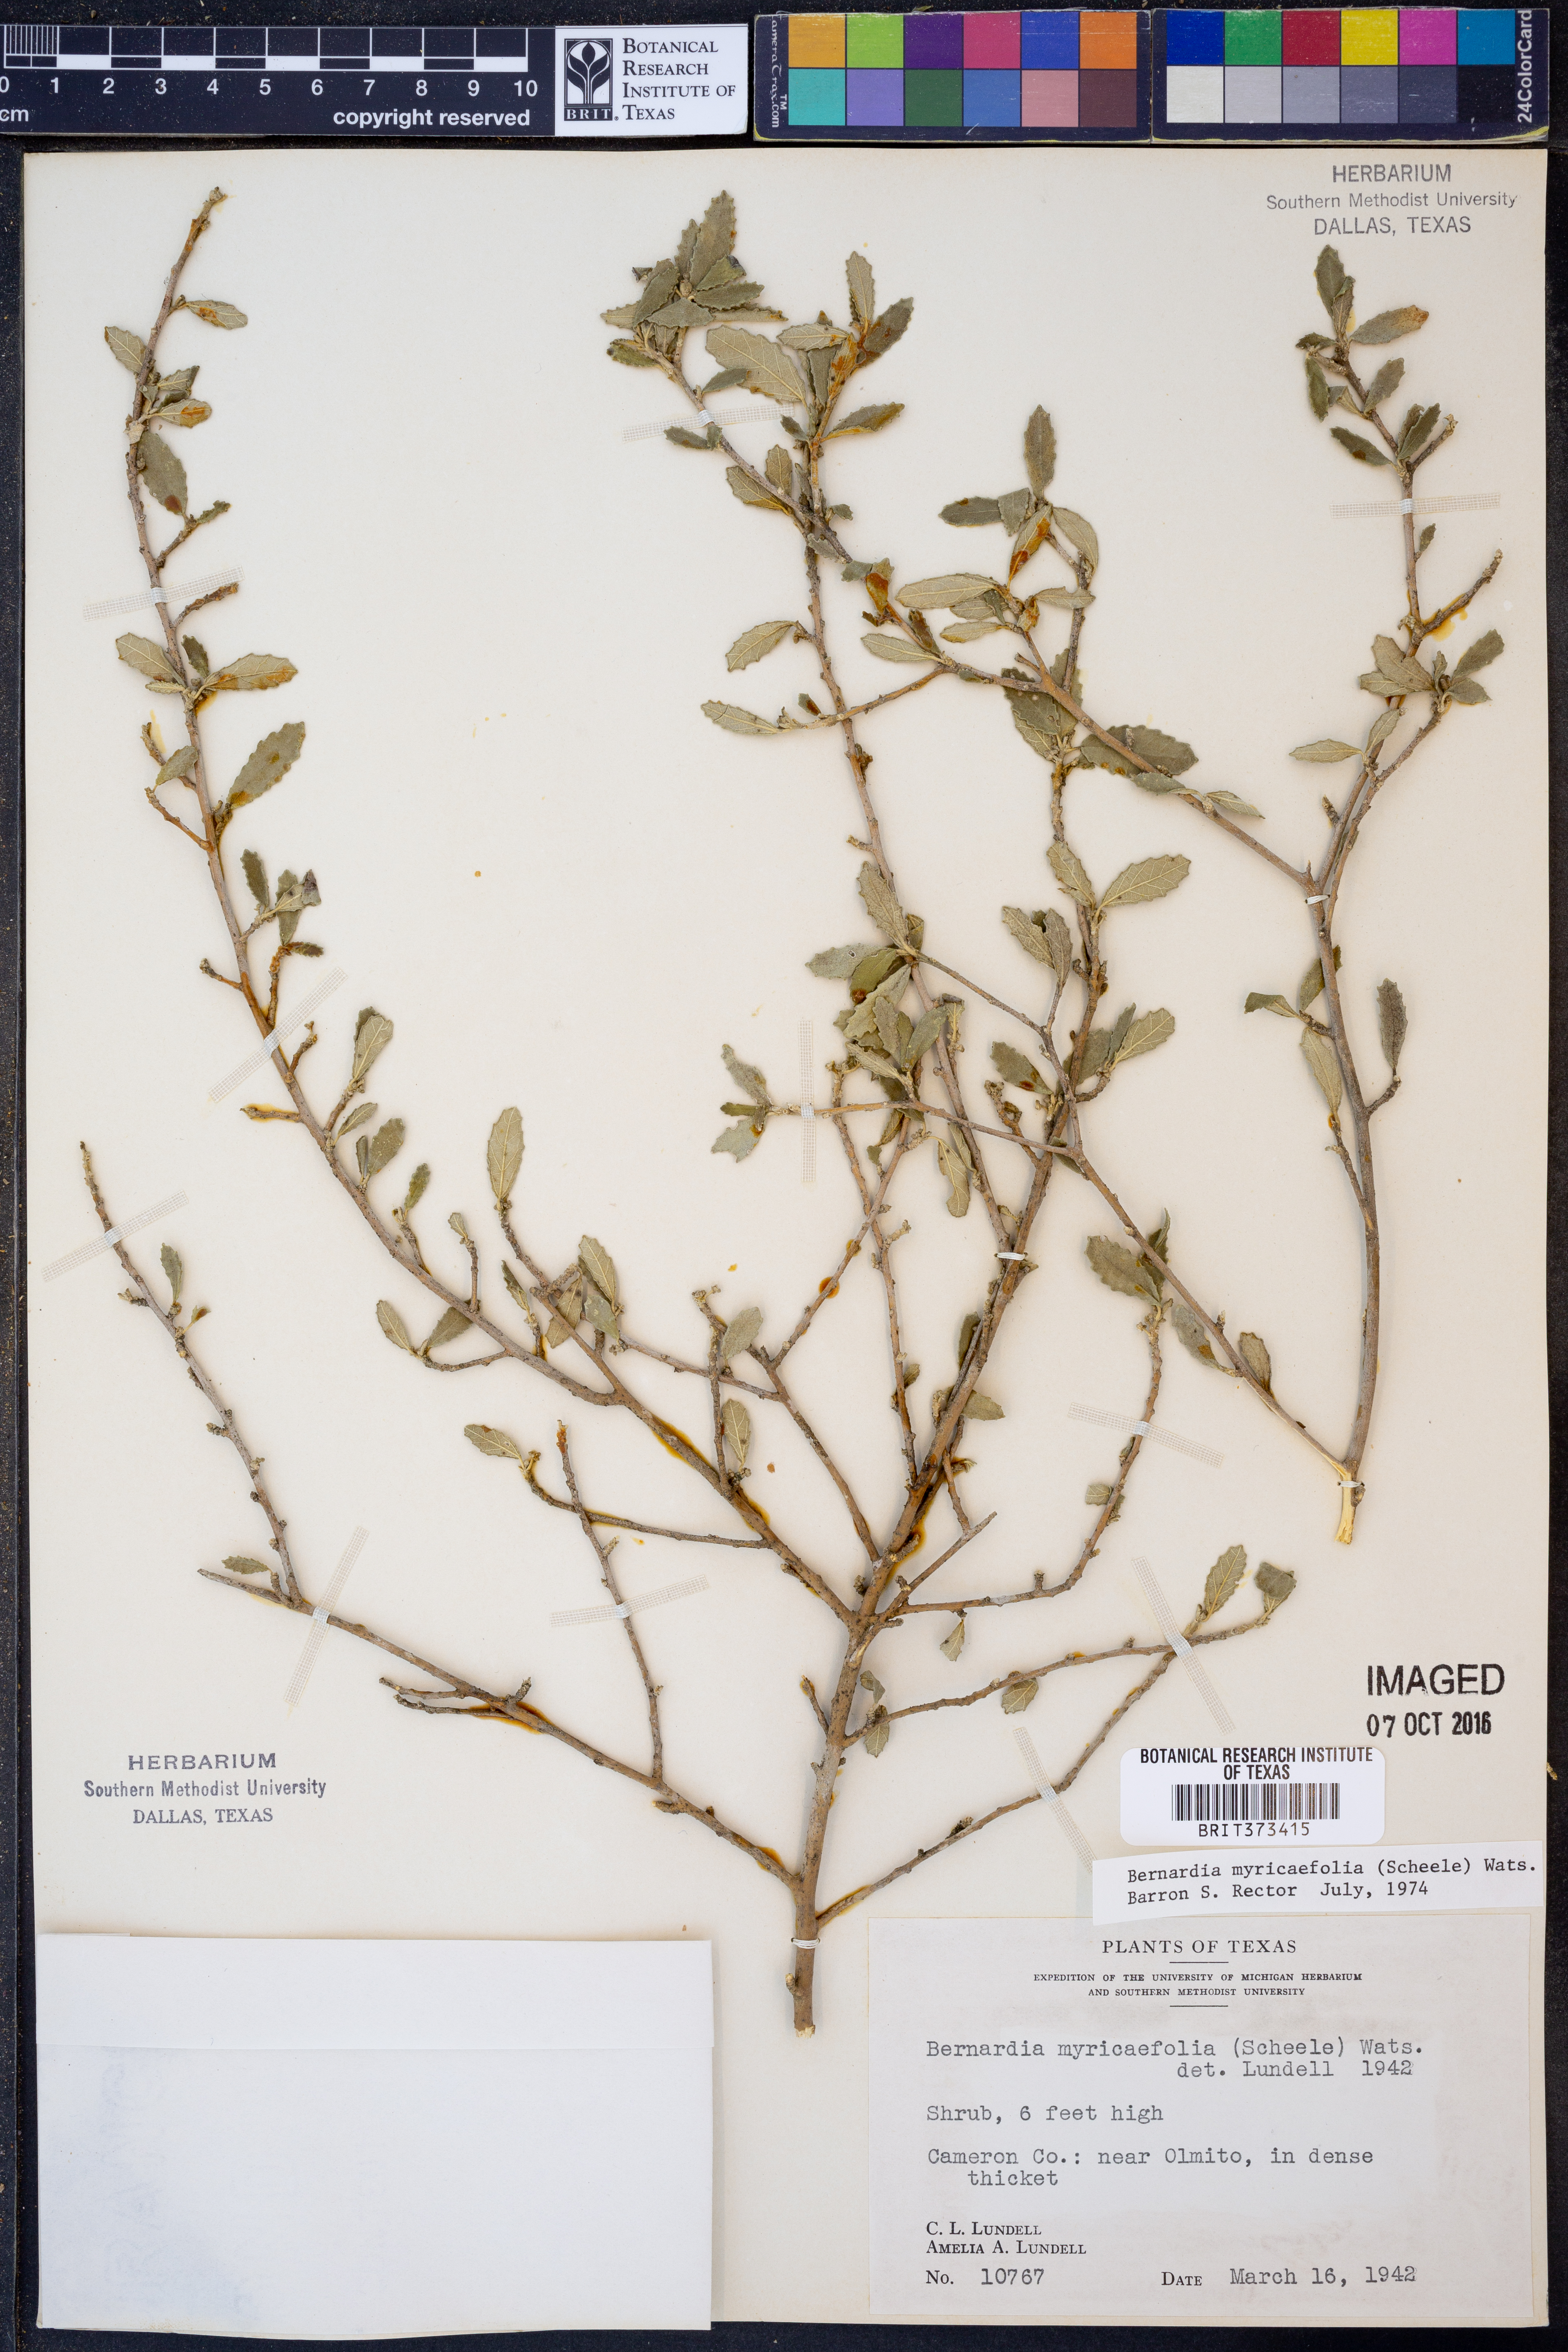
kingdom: Plantae
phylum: Tracheophyta
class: Magnoliopsida
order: Malpighiales
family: Euphorbiaceae
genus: Bernardia
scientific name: Bernardia myricifolia
